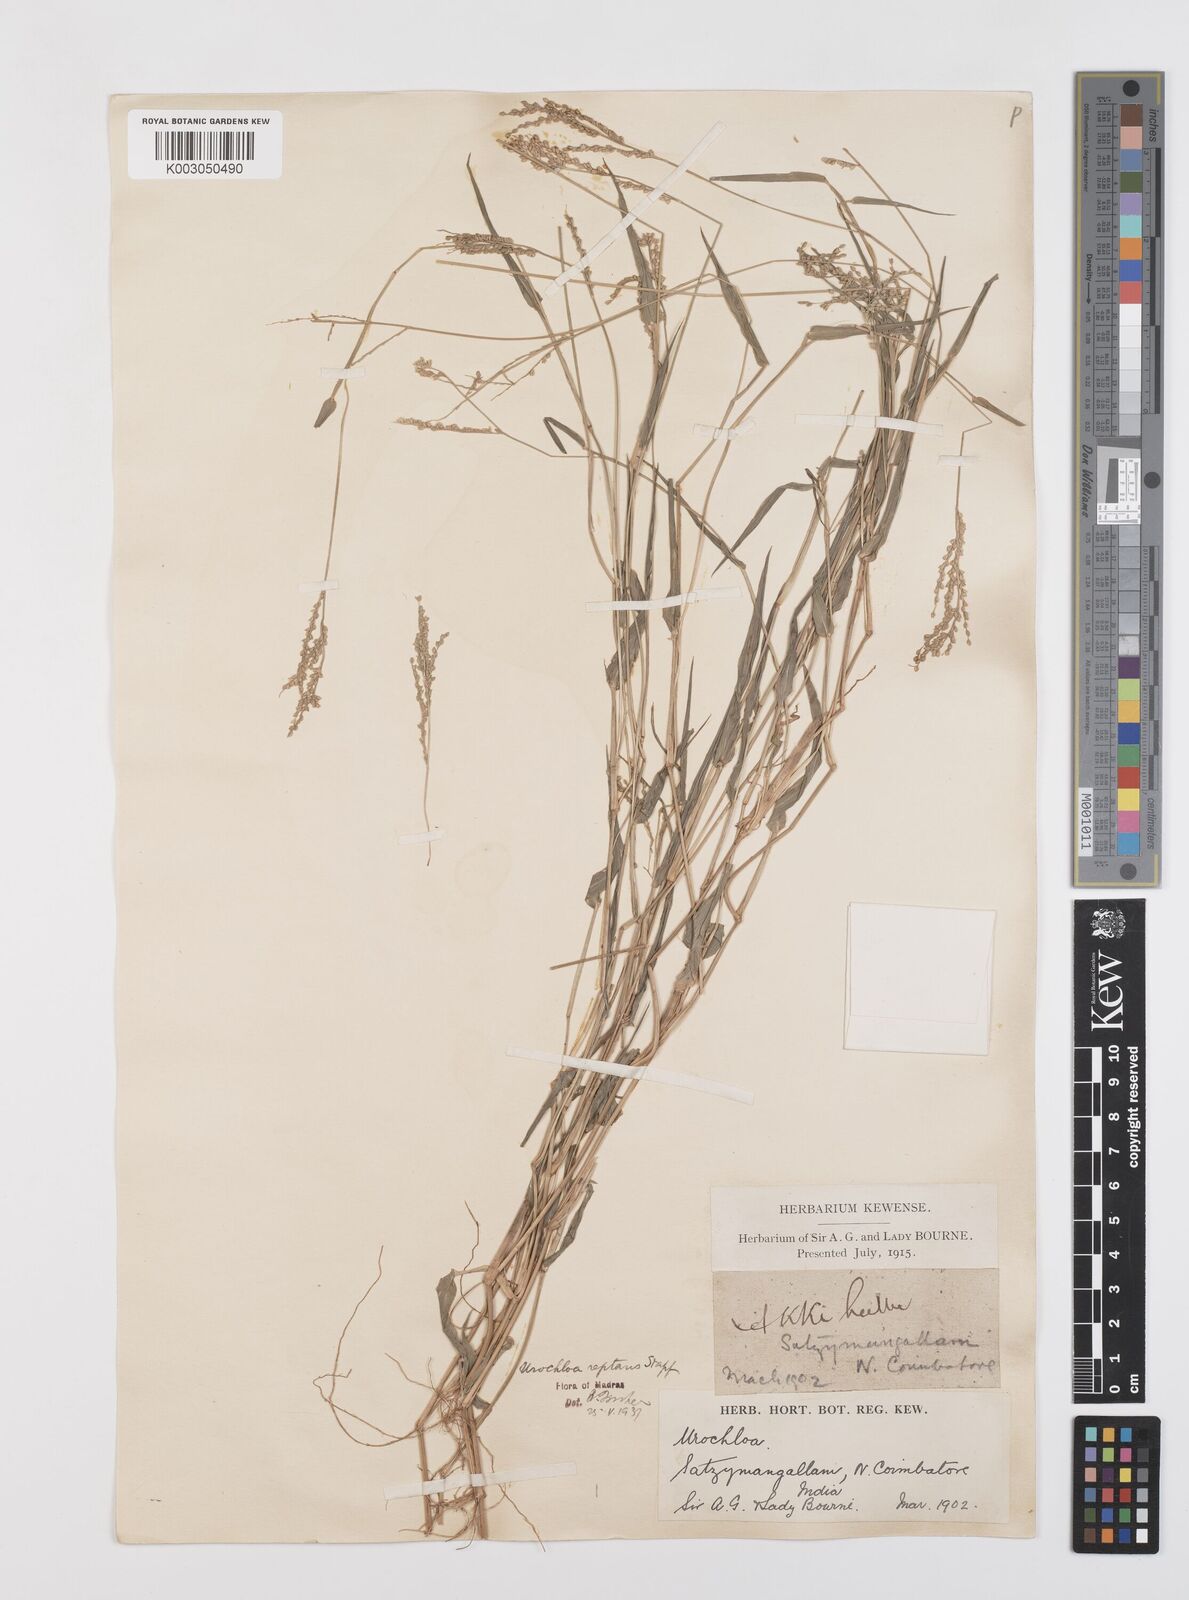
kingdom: Plantae
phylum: Tracheophyta
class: Liliopsida
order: Poales
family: Poaceae
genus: Urochloa
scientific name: Urochloa reptans
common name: Sprawling signalgrass
